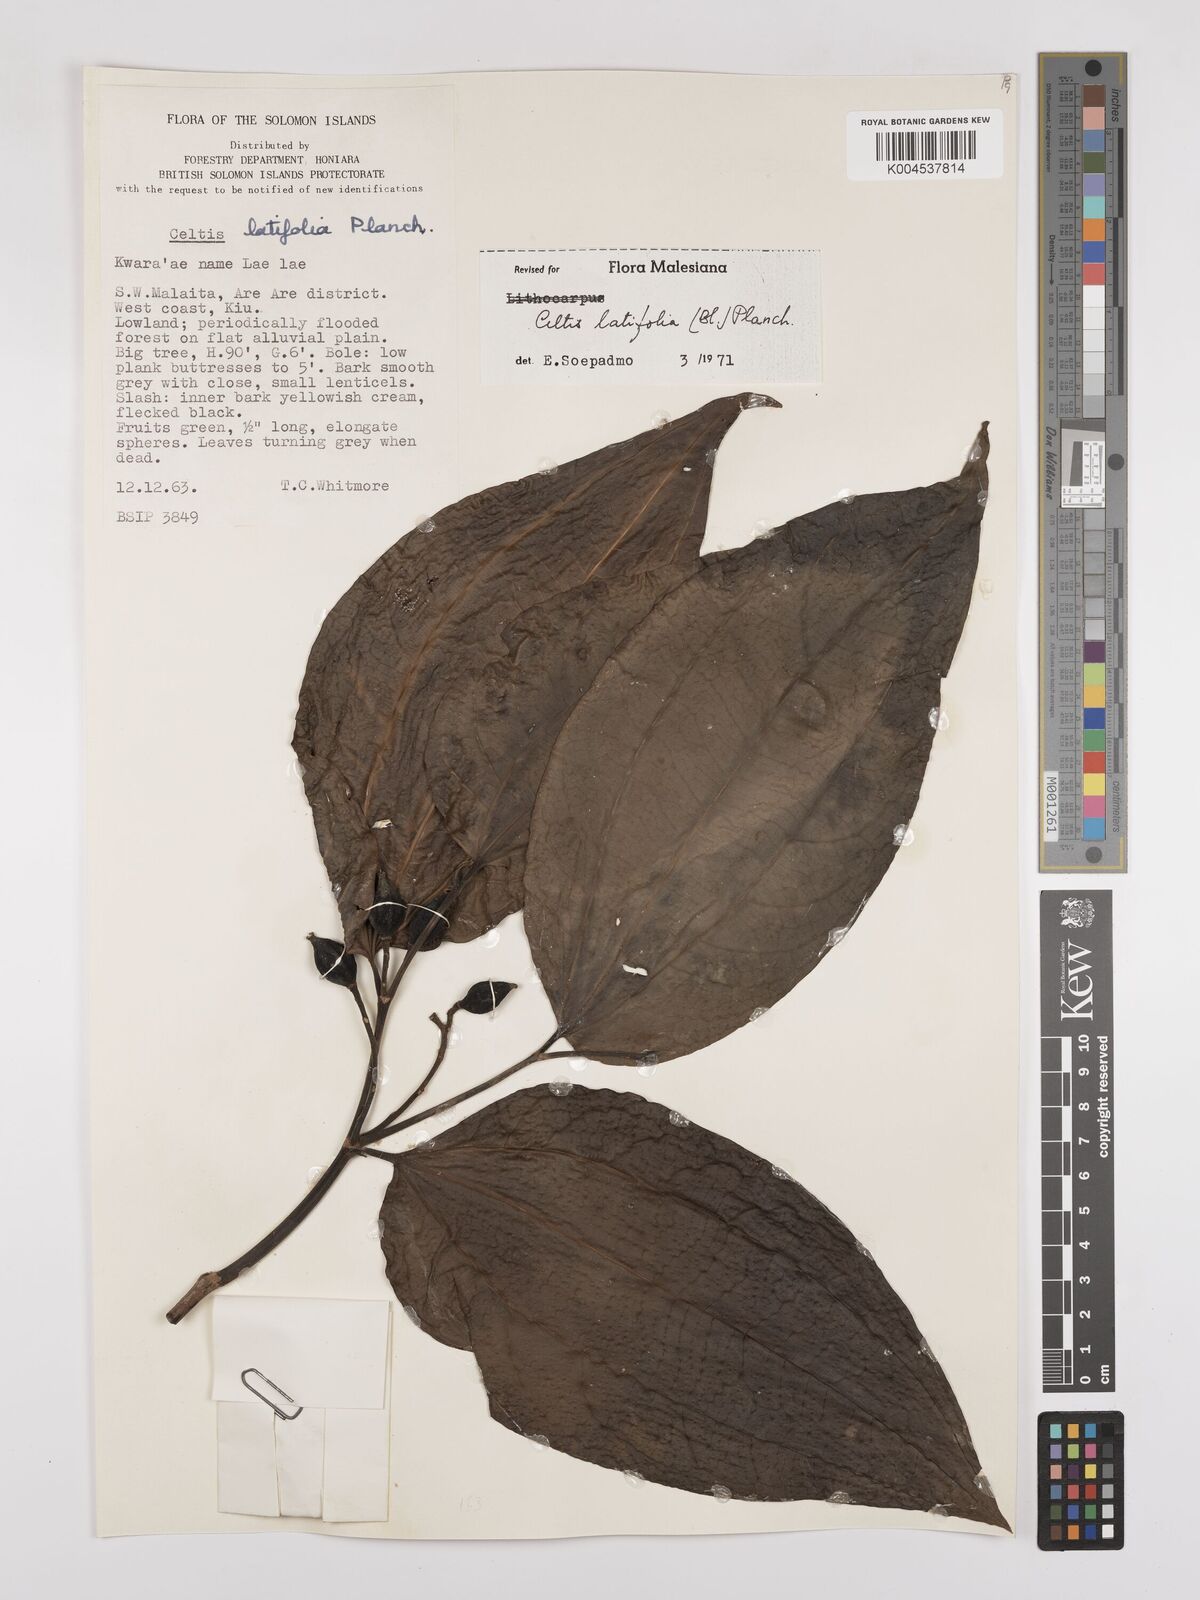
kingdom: Plantae
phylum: Tracheophyta
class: Magnoliopsida
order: Rosales
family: Cannabaceae
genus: Celtis
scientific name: Celtis latifolia
